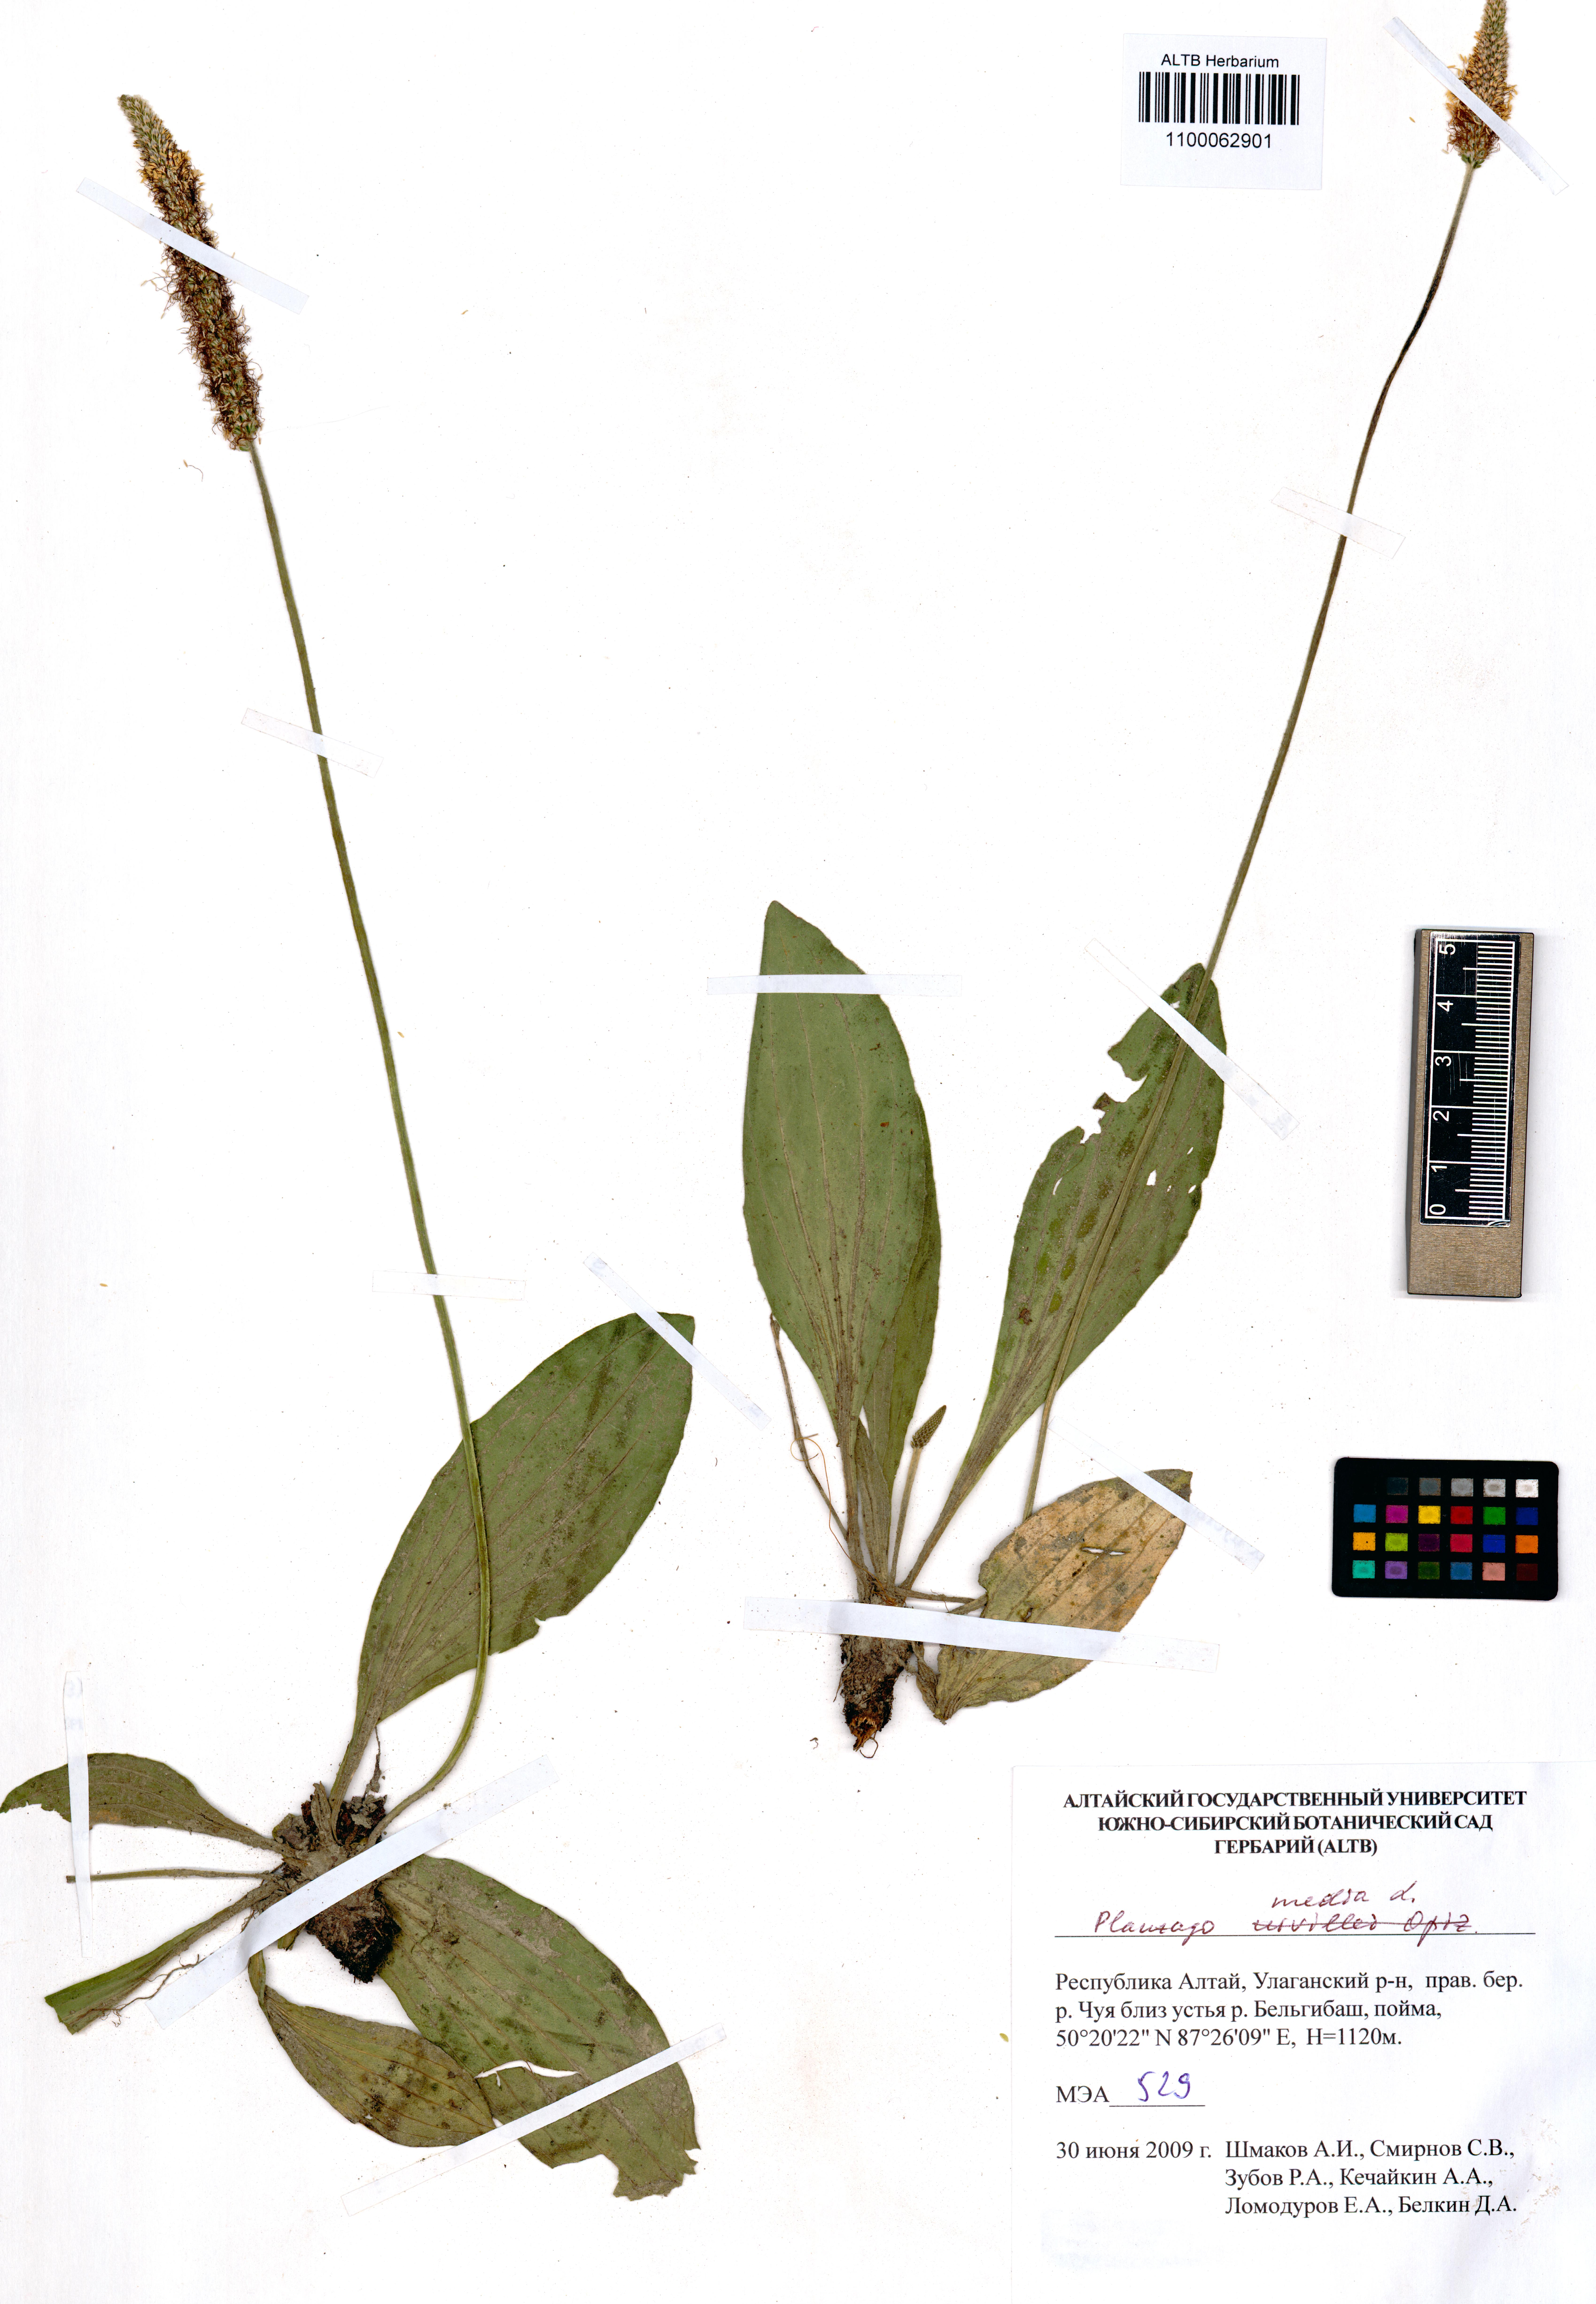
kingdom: Plantae
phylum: Tracheophyta
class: Magnoliopsida
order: Lamiales
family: Plantaginaceae
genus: Plantago
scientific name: Plantago media
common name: Hoary plantain
